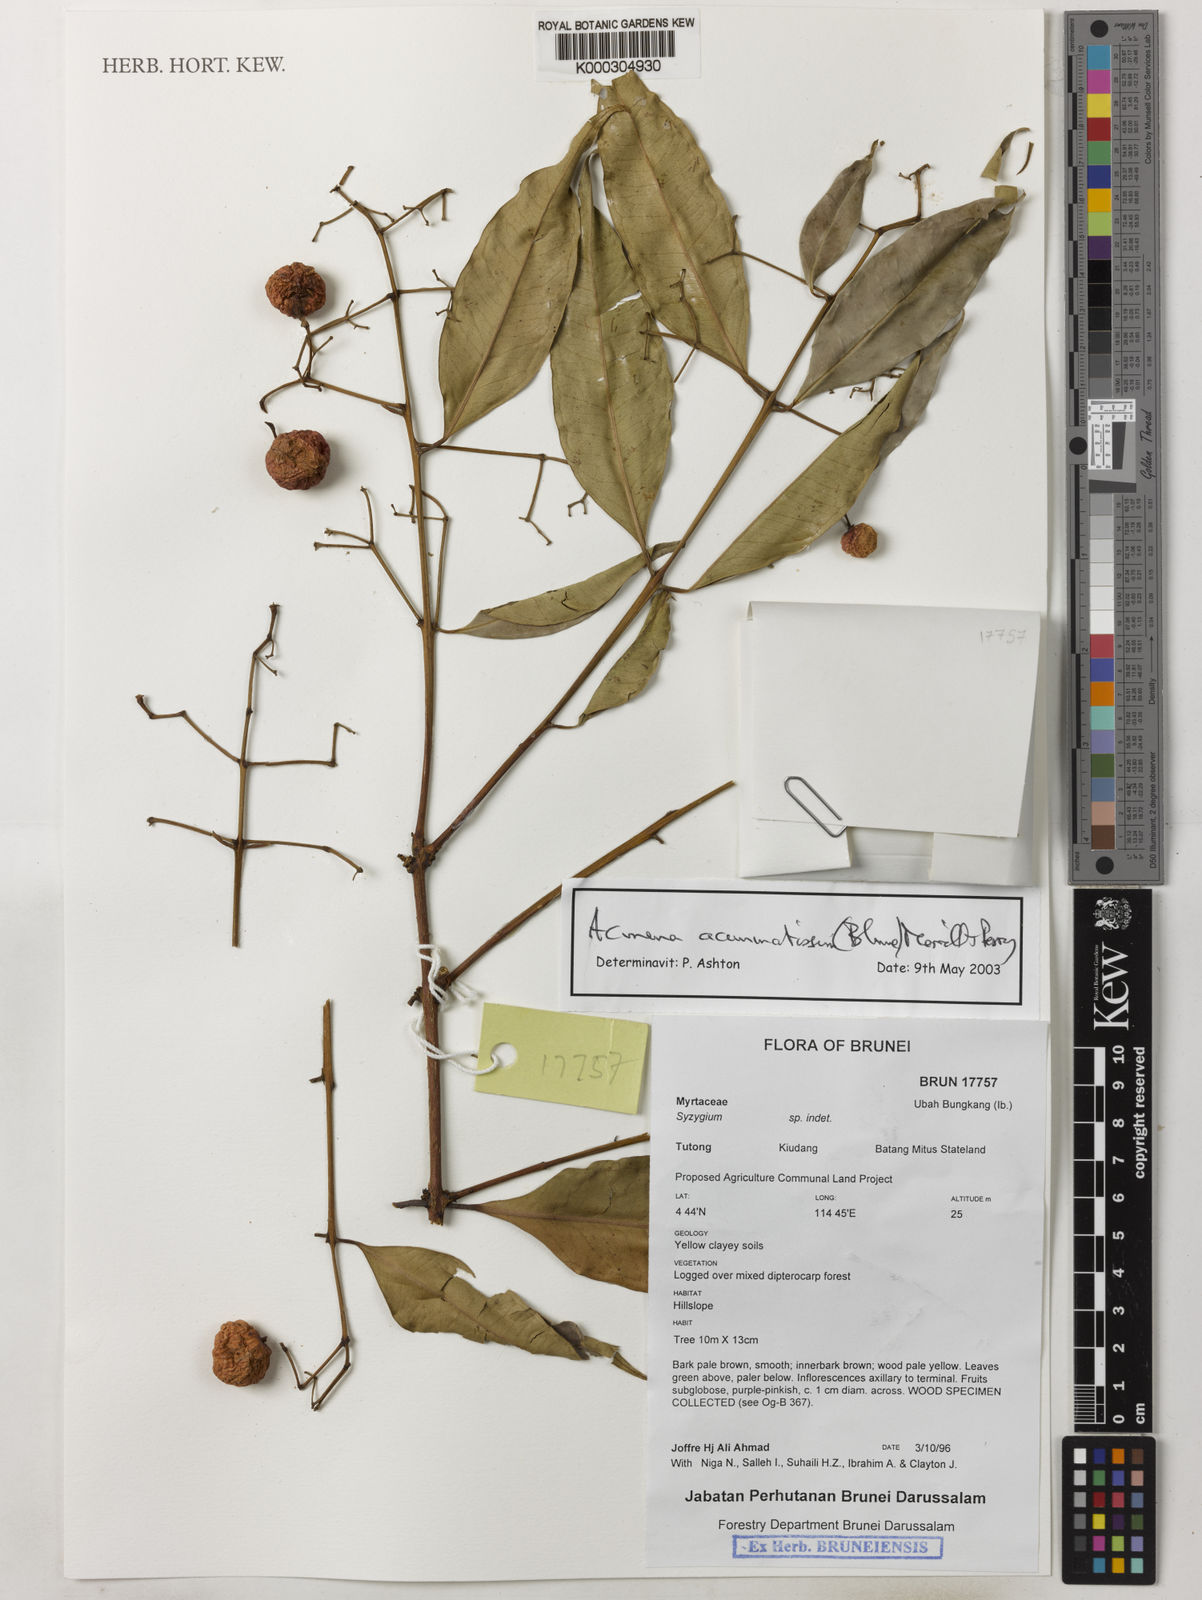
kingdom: Plantae
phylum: Tracheophyta
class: Magnoliopsida
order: Myrtales
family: Myrtaceae
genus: Syzygium
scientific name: Syzygium acuminatissimum
